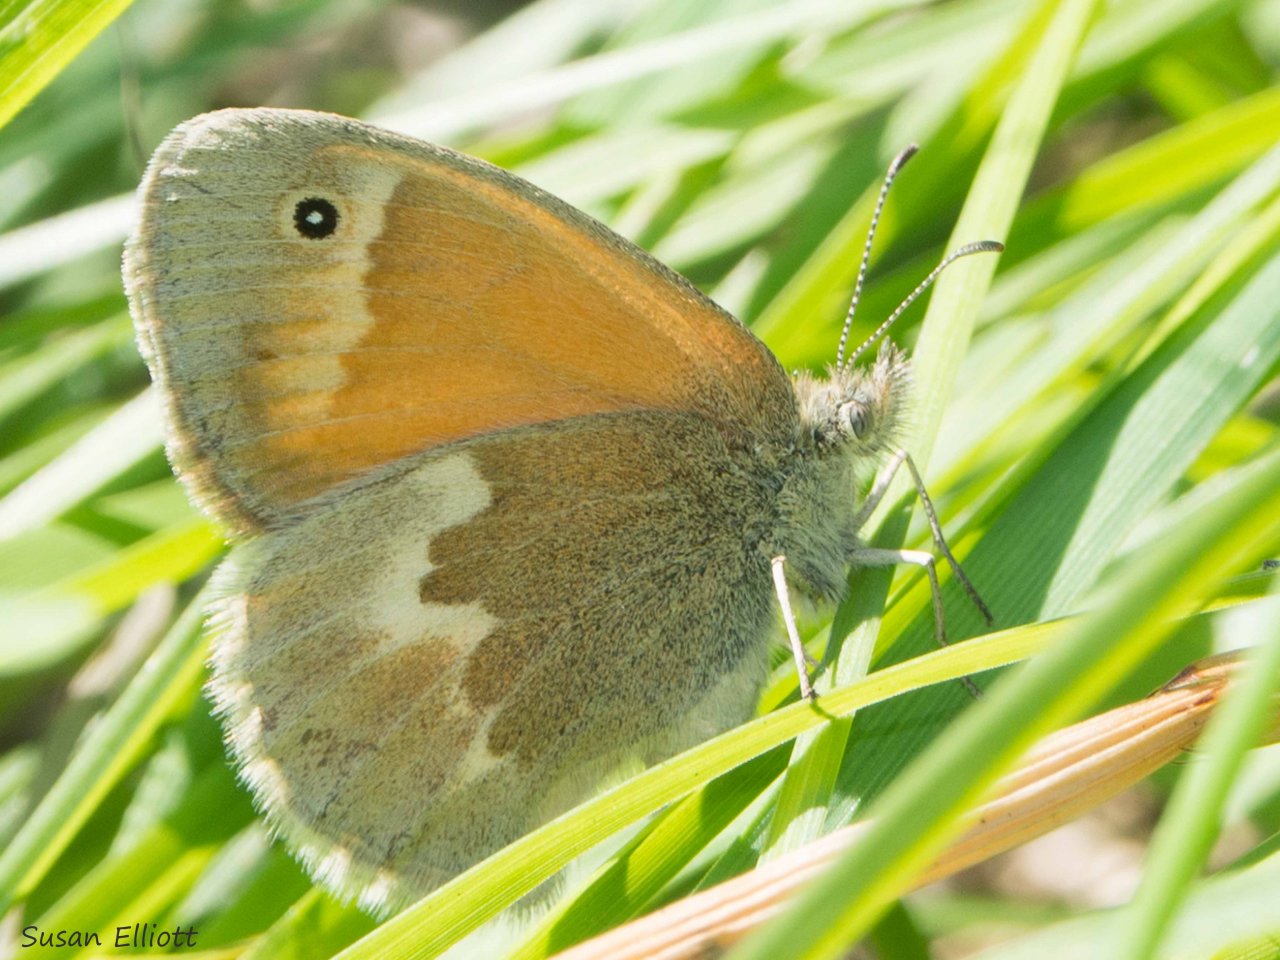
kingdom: Animalia
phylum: Arthropoda
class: Insecta
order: Lepidoptera
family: Nymphalidae
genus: Coenonympha
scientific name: Coenonympha tullia
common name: Large Heath
